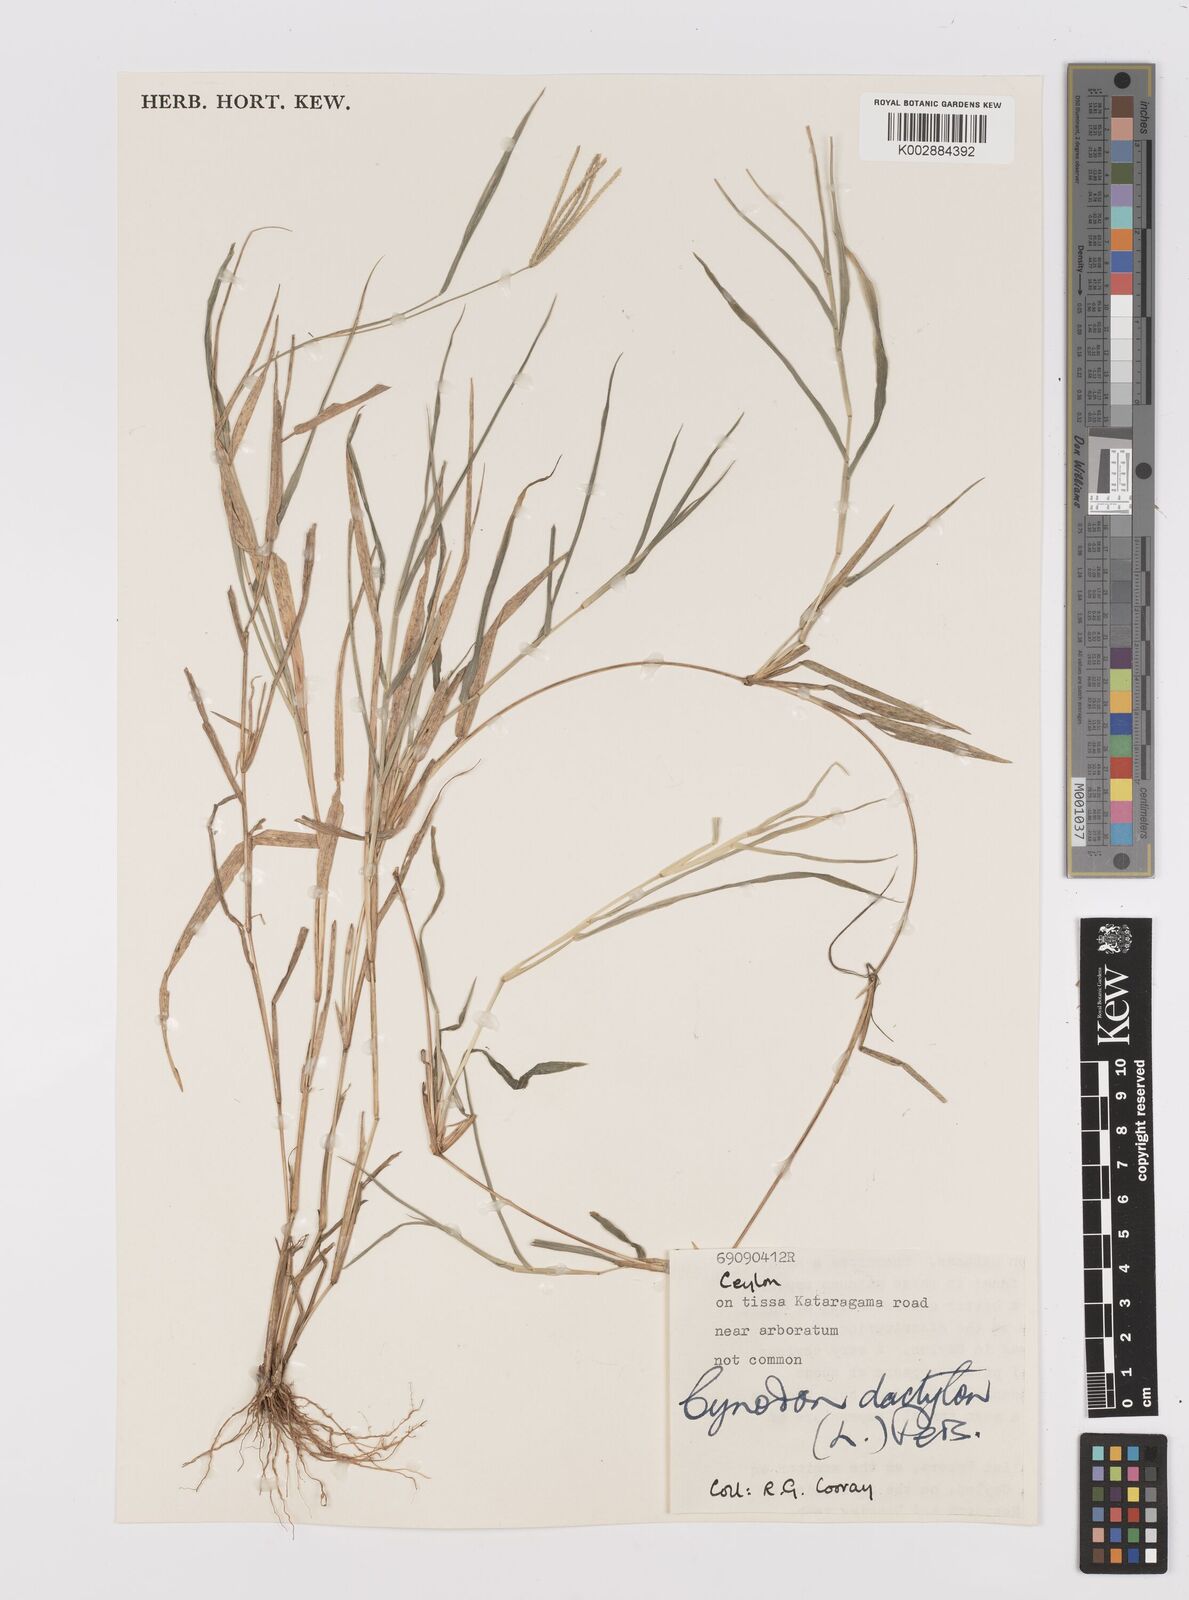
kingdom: Plantae
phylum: Tracheophyta
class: Liliopsida
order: Poales
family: Poaceae
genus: Cynodon
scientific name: Cynodon dactylon
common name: Bermuda grass
